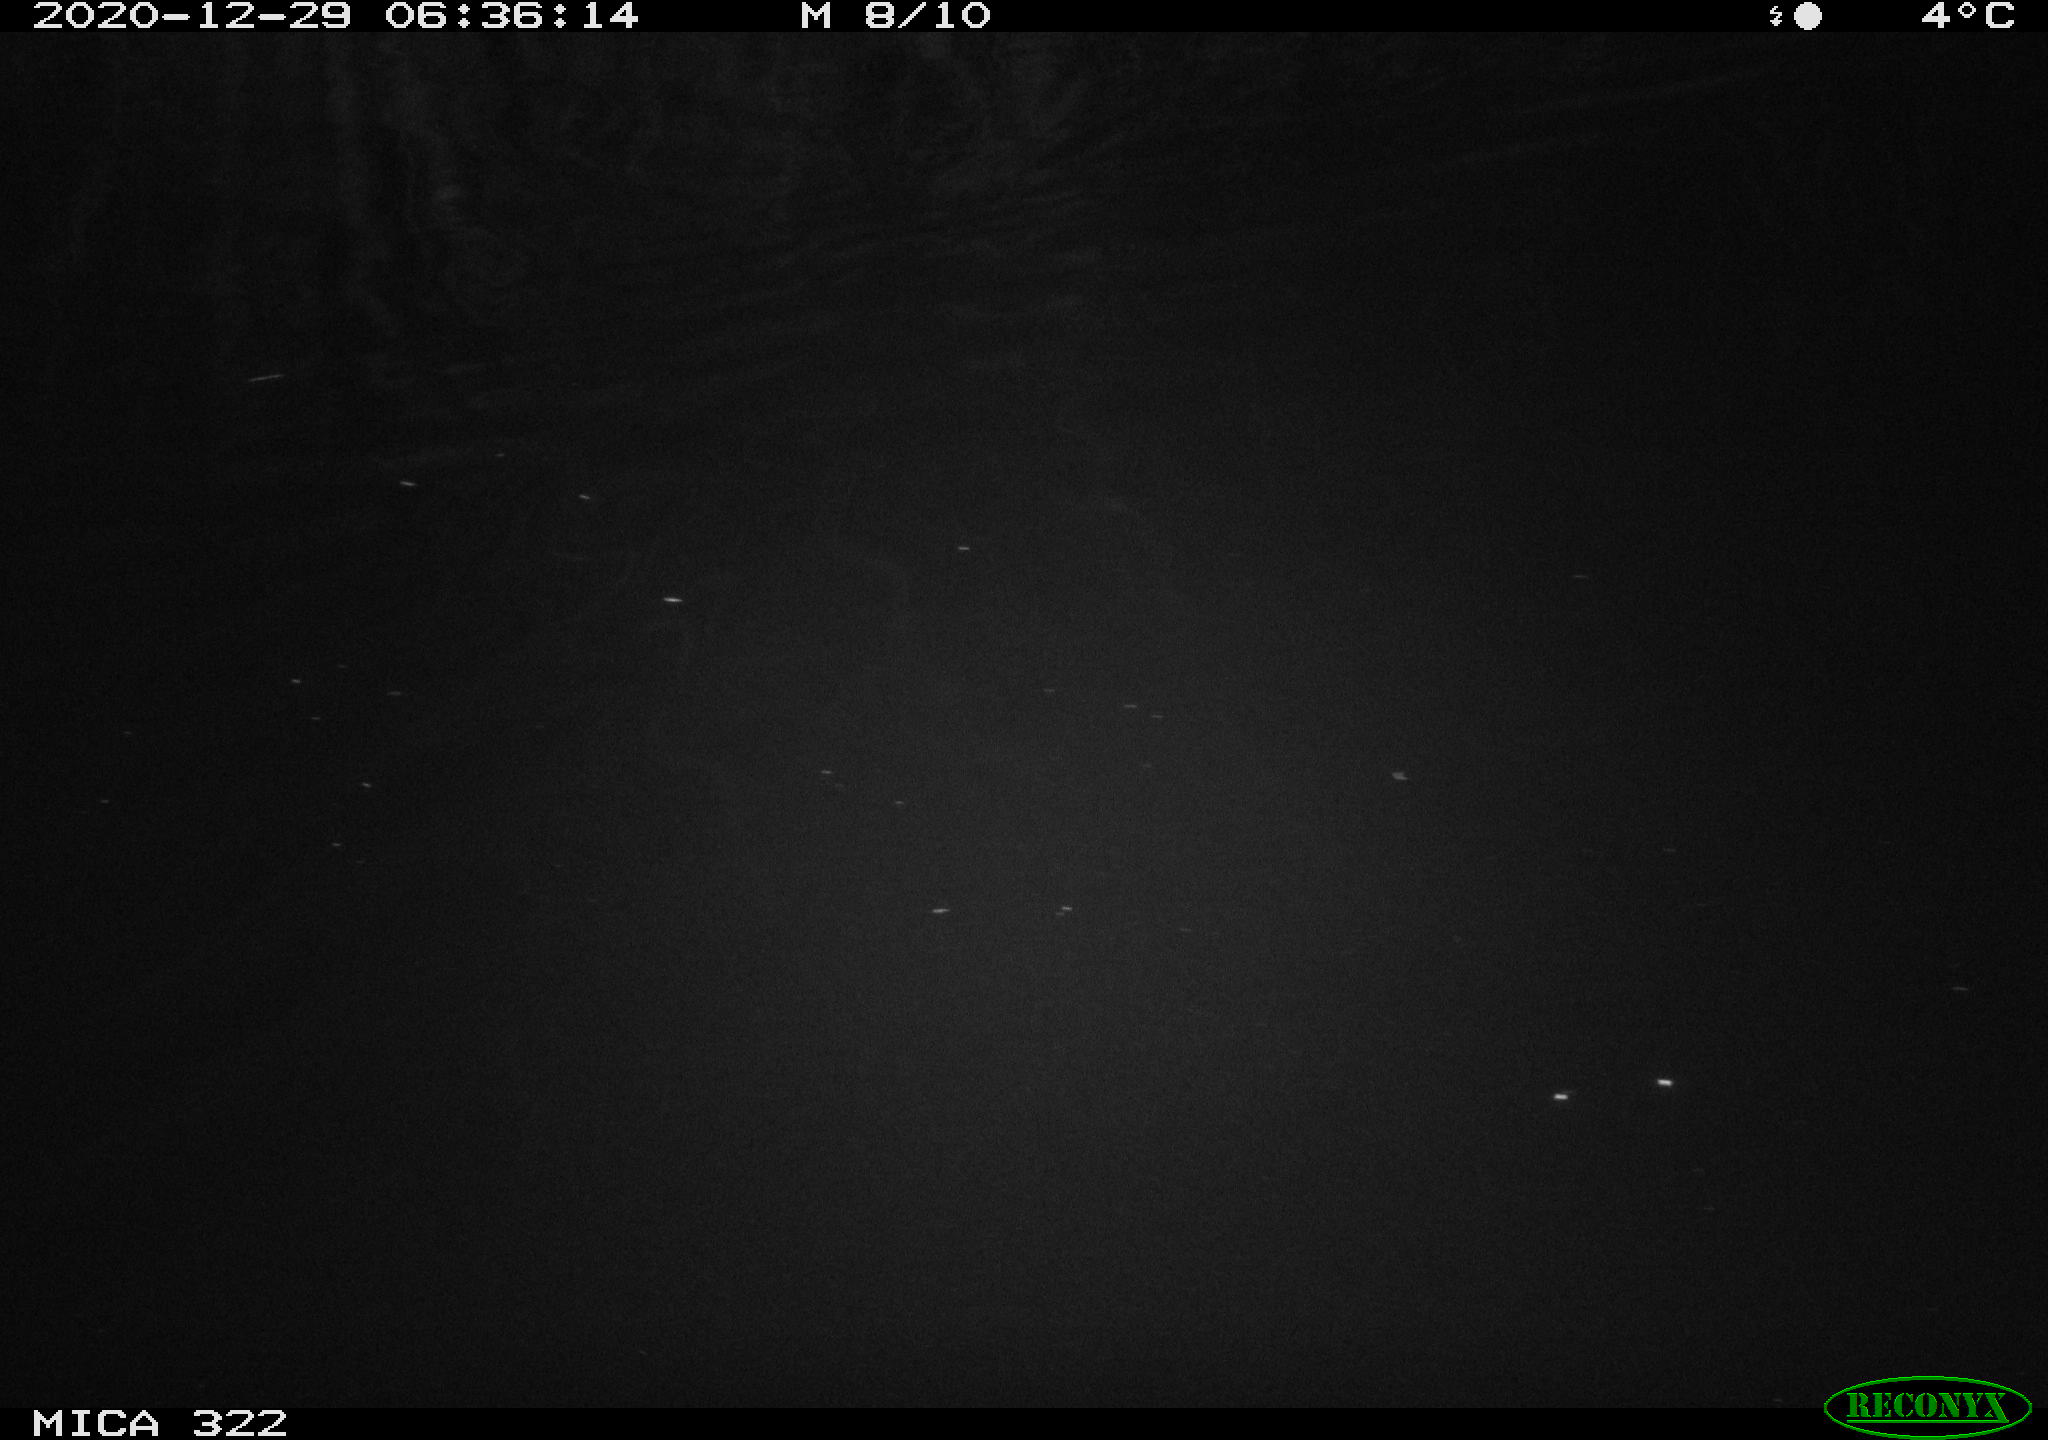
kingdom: Animalia
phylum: Chordata
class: Mammalia
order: Rodentia
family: Muridae
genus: Rattus
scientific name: Rattus norvegicus
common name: Brown rat
